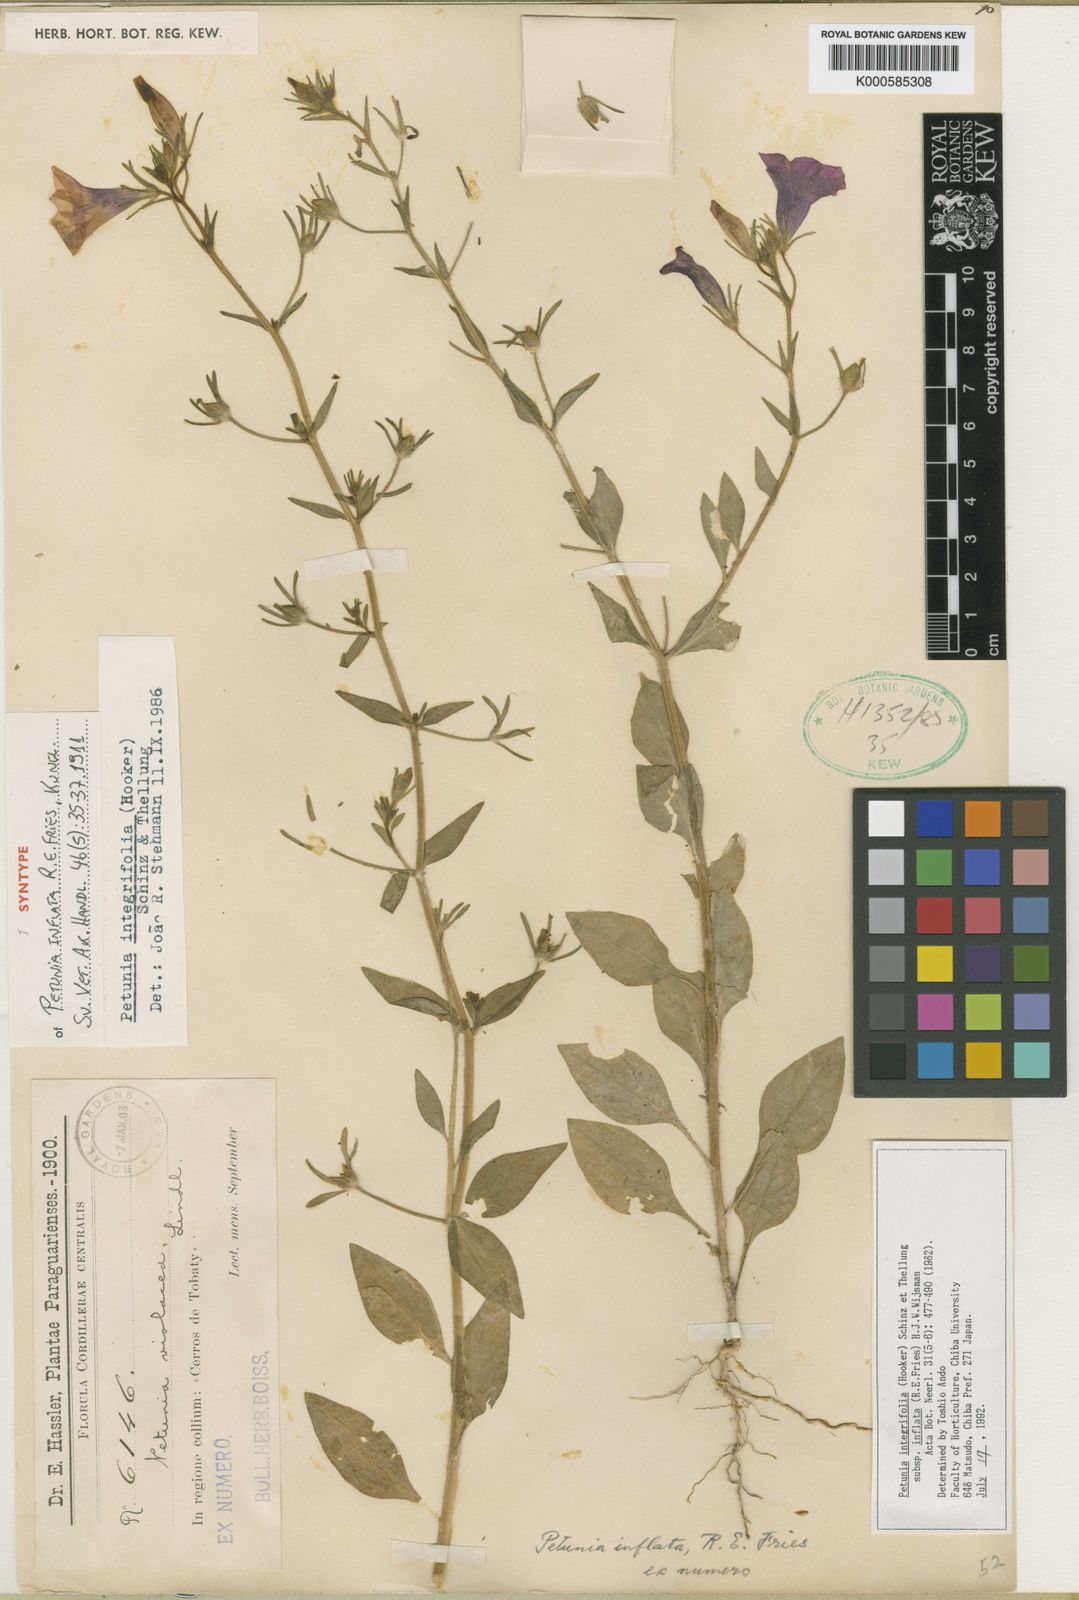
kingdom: Plantae
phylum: Tracheophyta
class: Magnoliopsida
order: Solanales
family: Solanaceae
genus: Petunia
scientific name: Petunia inflata
